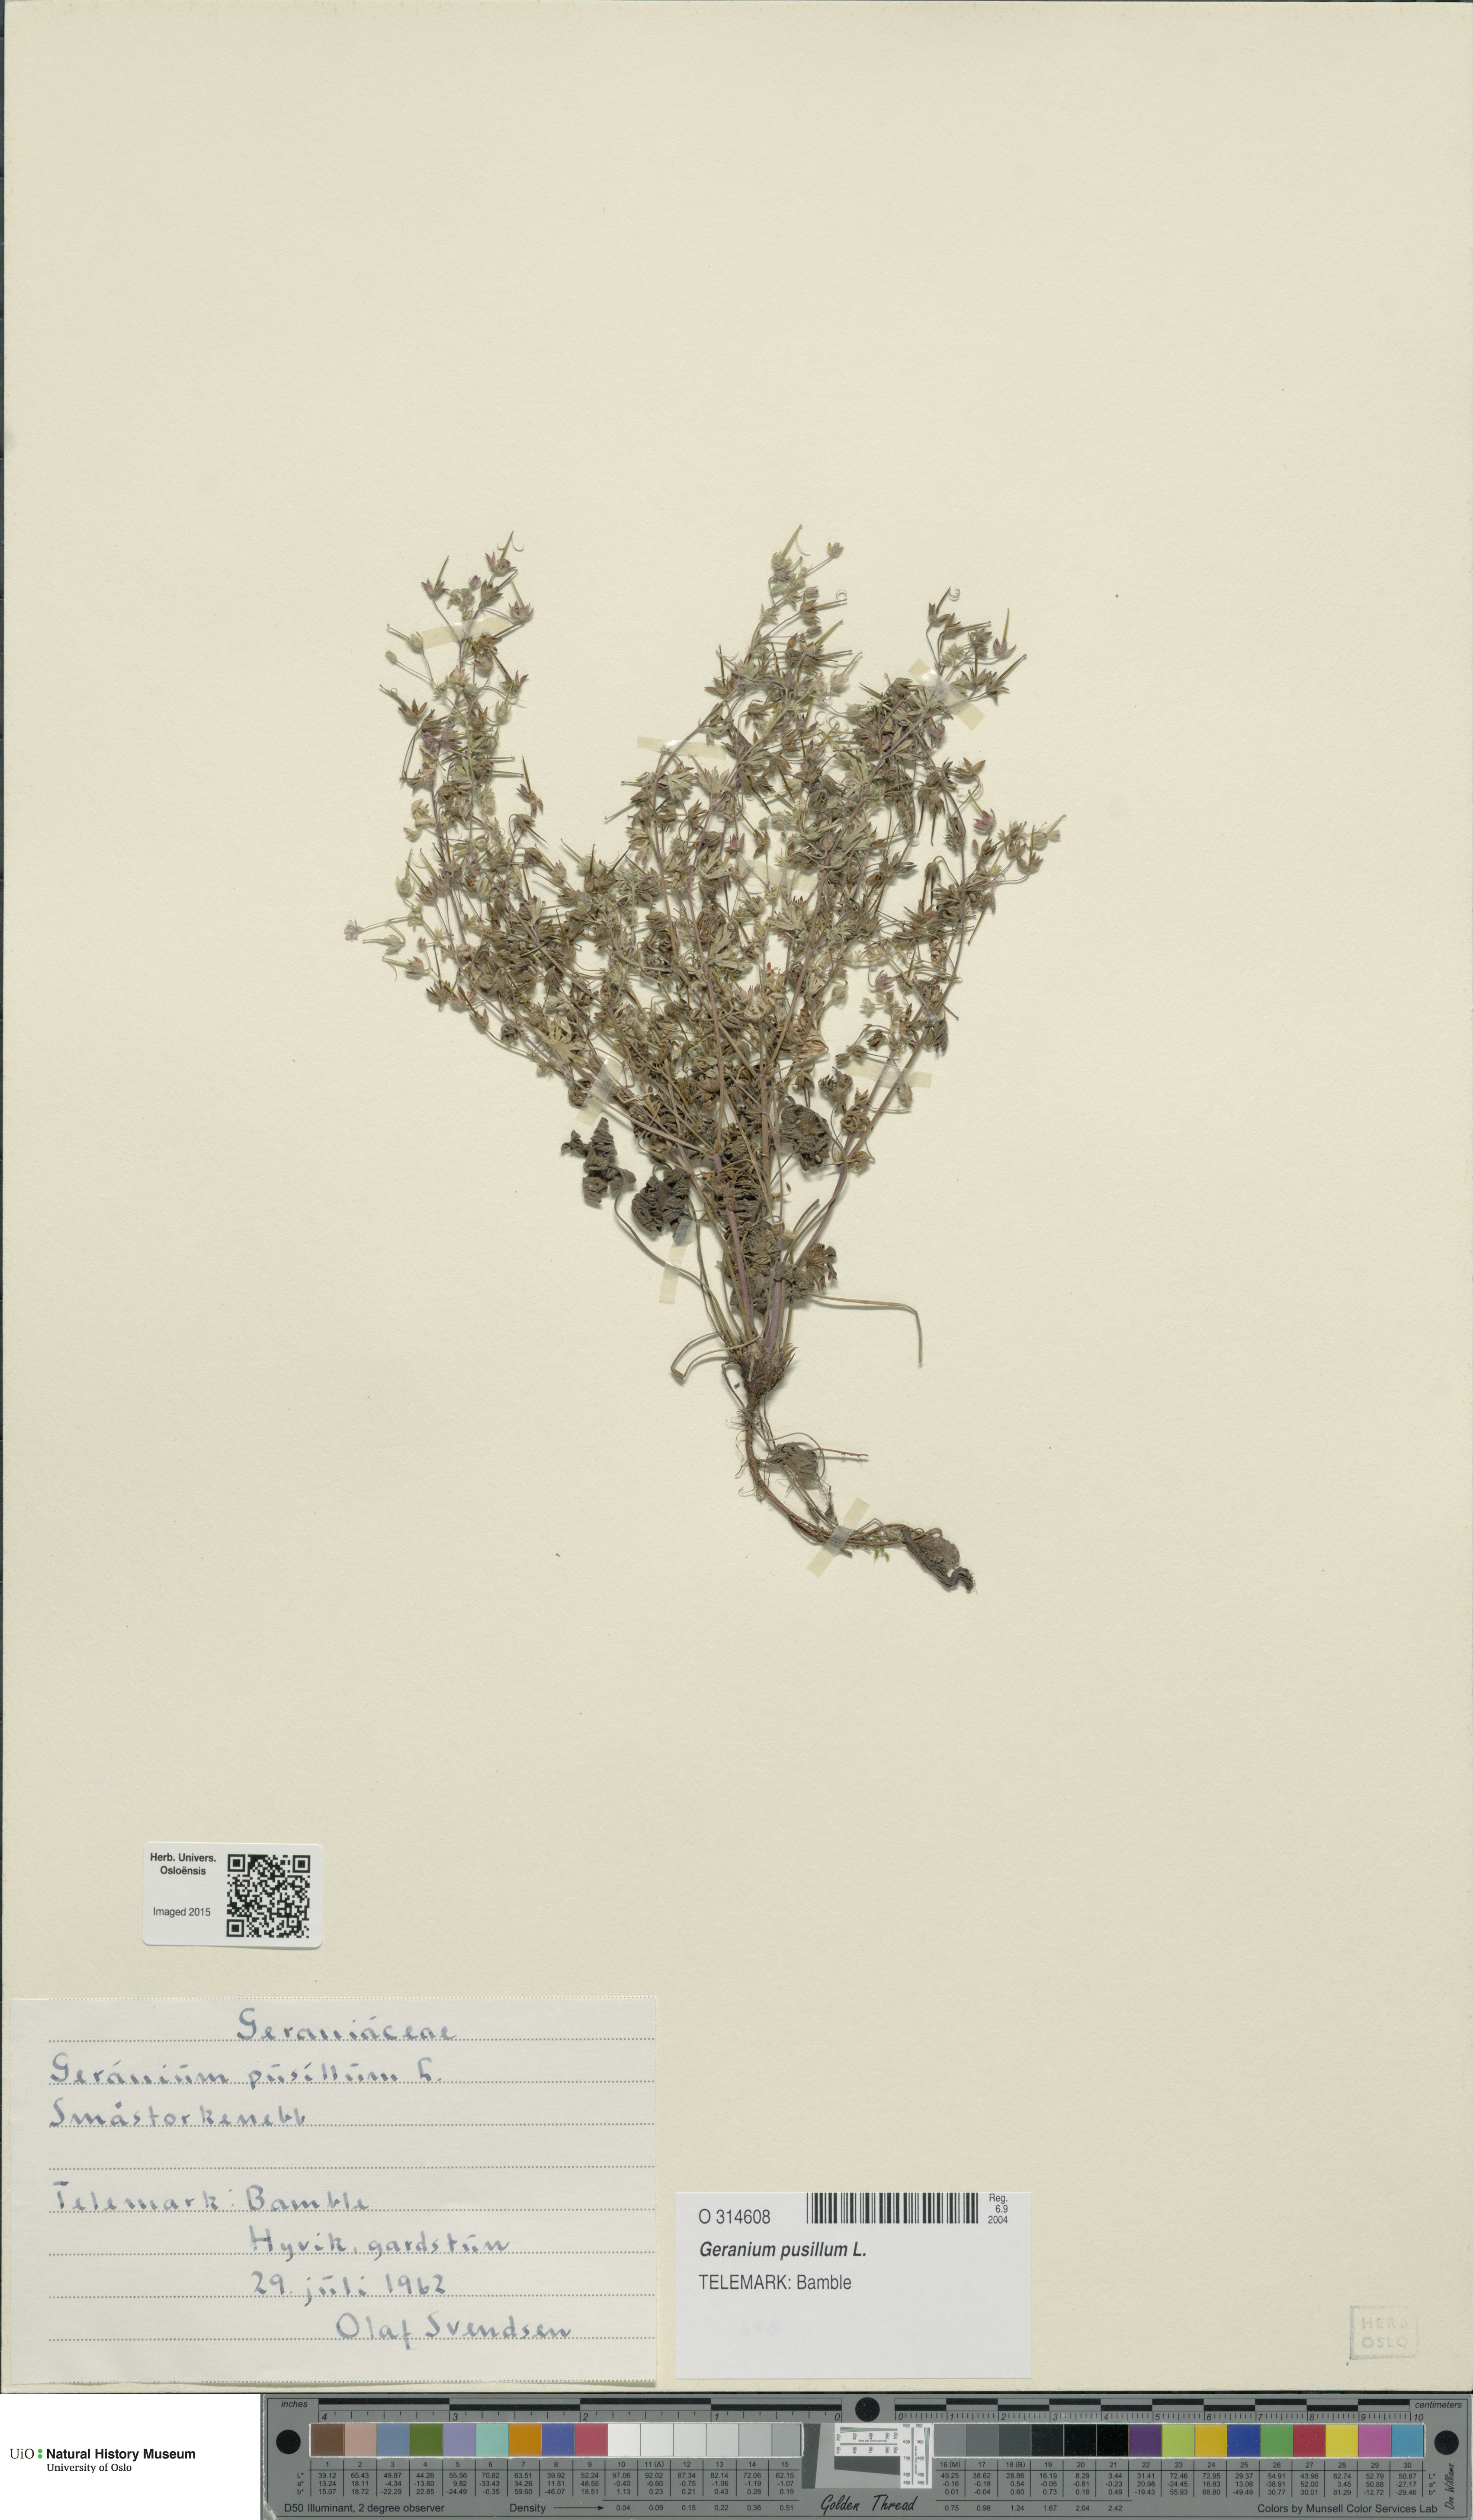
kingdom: Plantae
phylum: Tracheophyta
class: Magnoliopsida
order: Geraniales
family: Geraniaceae
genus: Geranium
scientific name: Geranium pusillum
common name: Small geranium
